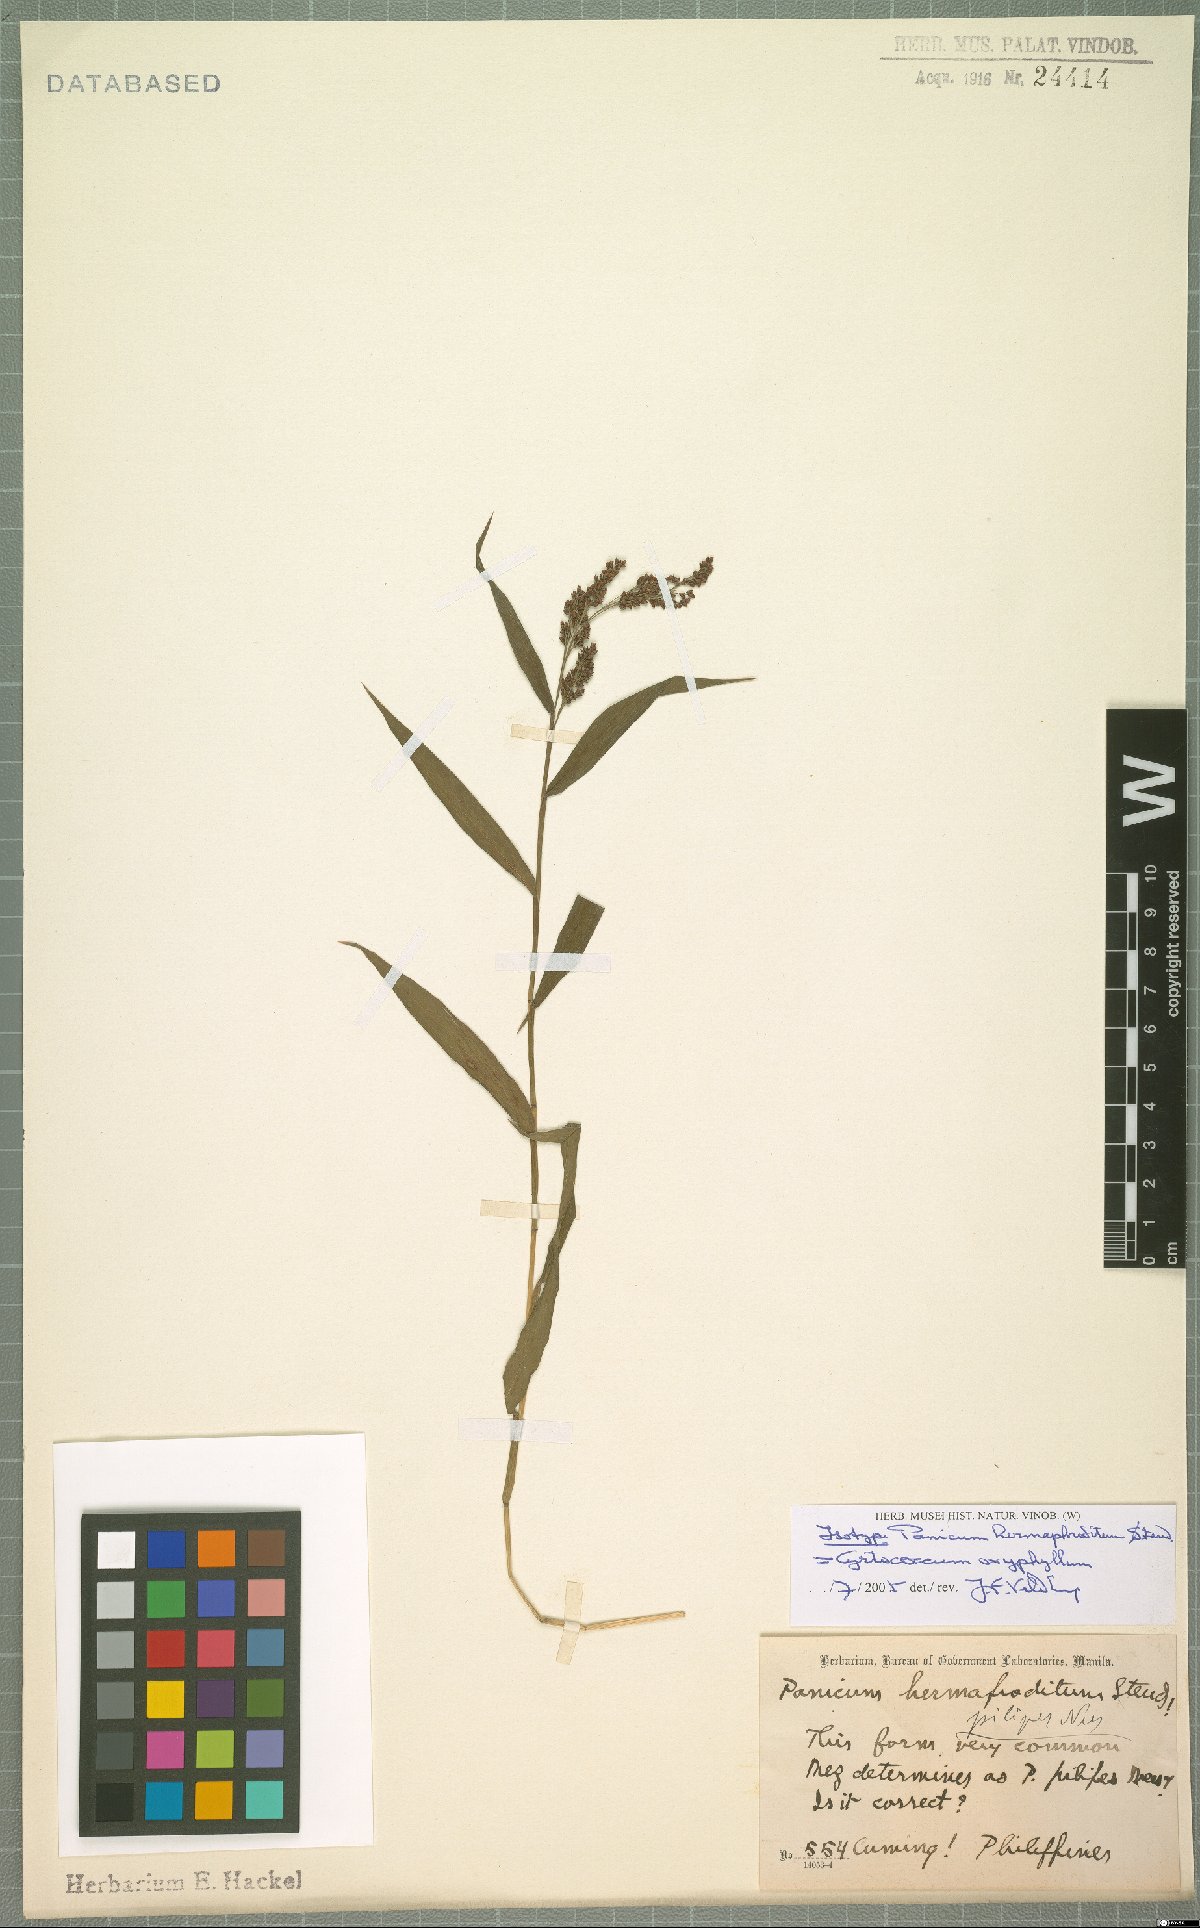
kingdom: Plantae
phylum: Tracheophyta
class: Liliopsida
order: Poales
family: Poaceae
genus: Cyrtococcum
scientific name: Cyrtococcum oxyphyllum
